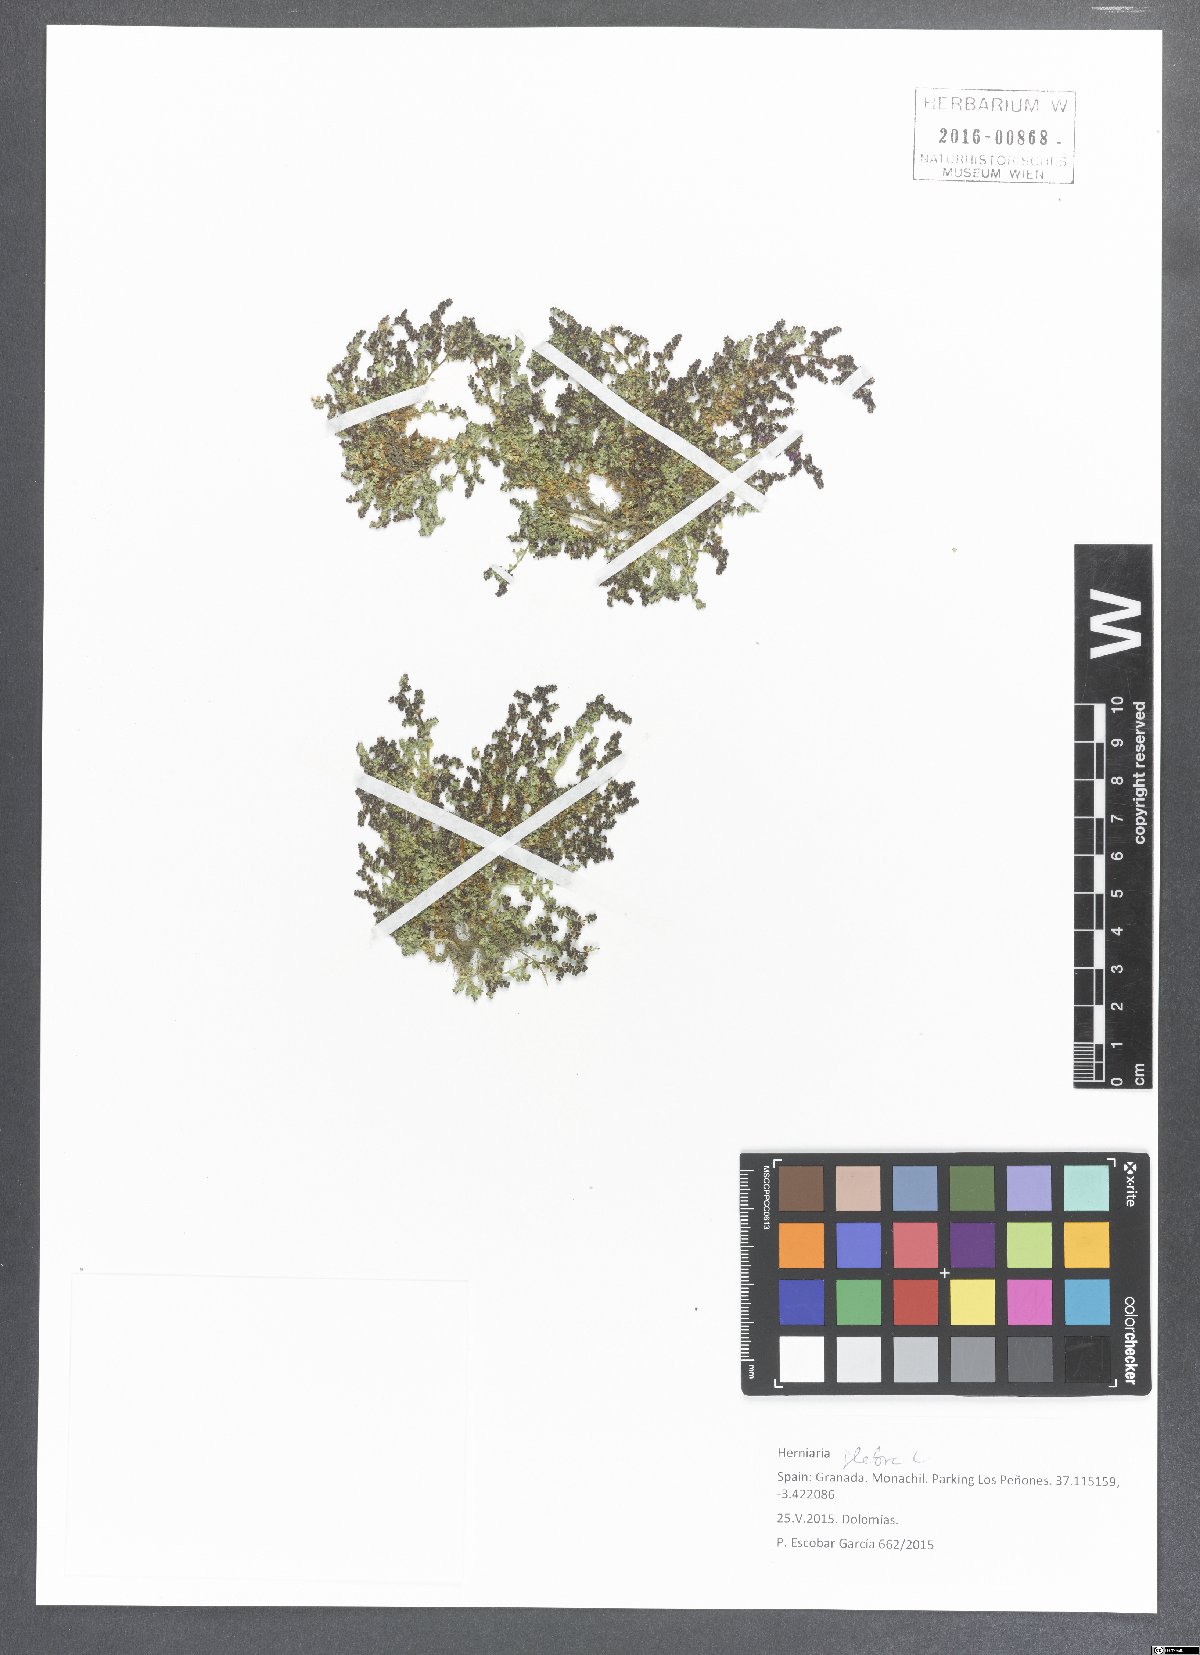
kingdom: Plantae
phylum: Tracheophyta
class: Magnoliopsida
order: Caryophyllales
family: Caryophyllaceae
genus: Herniaria
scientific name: Herniaria glabra
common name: Smooth rupturewort
